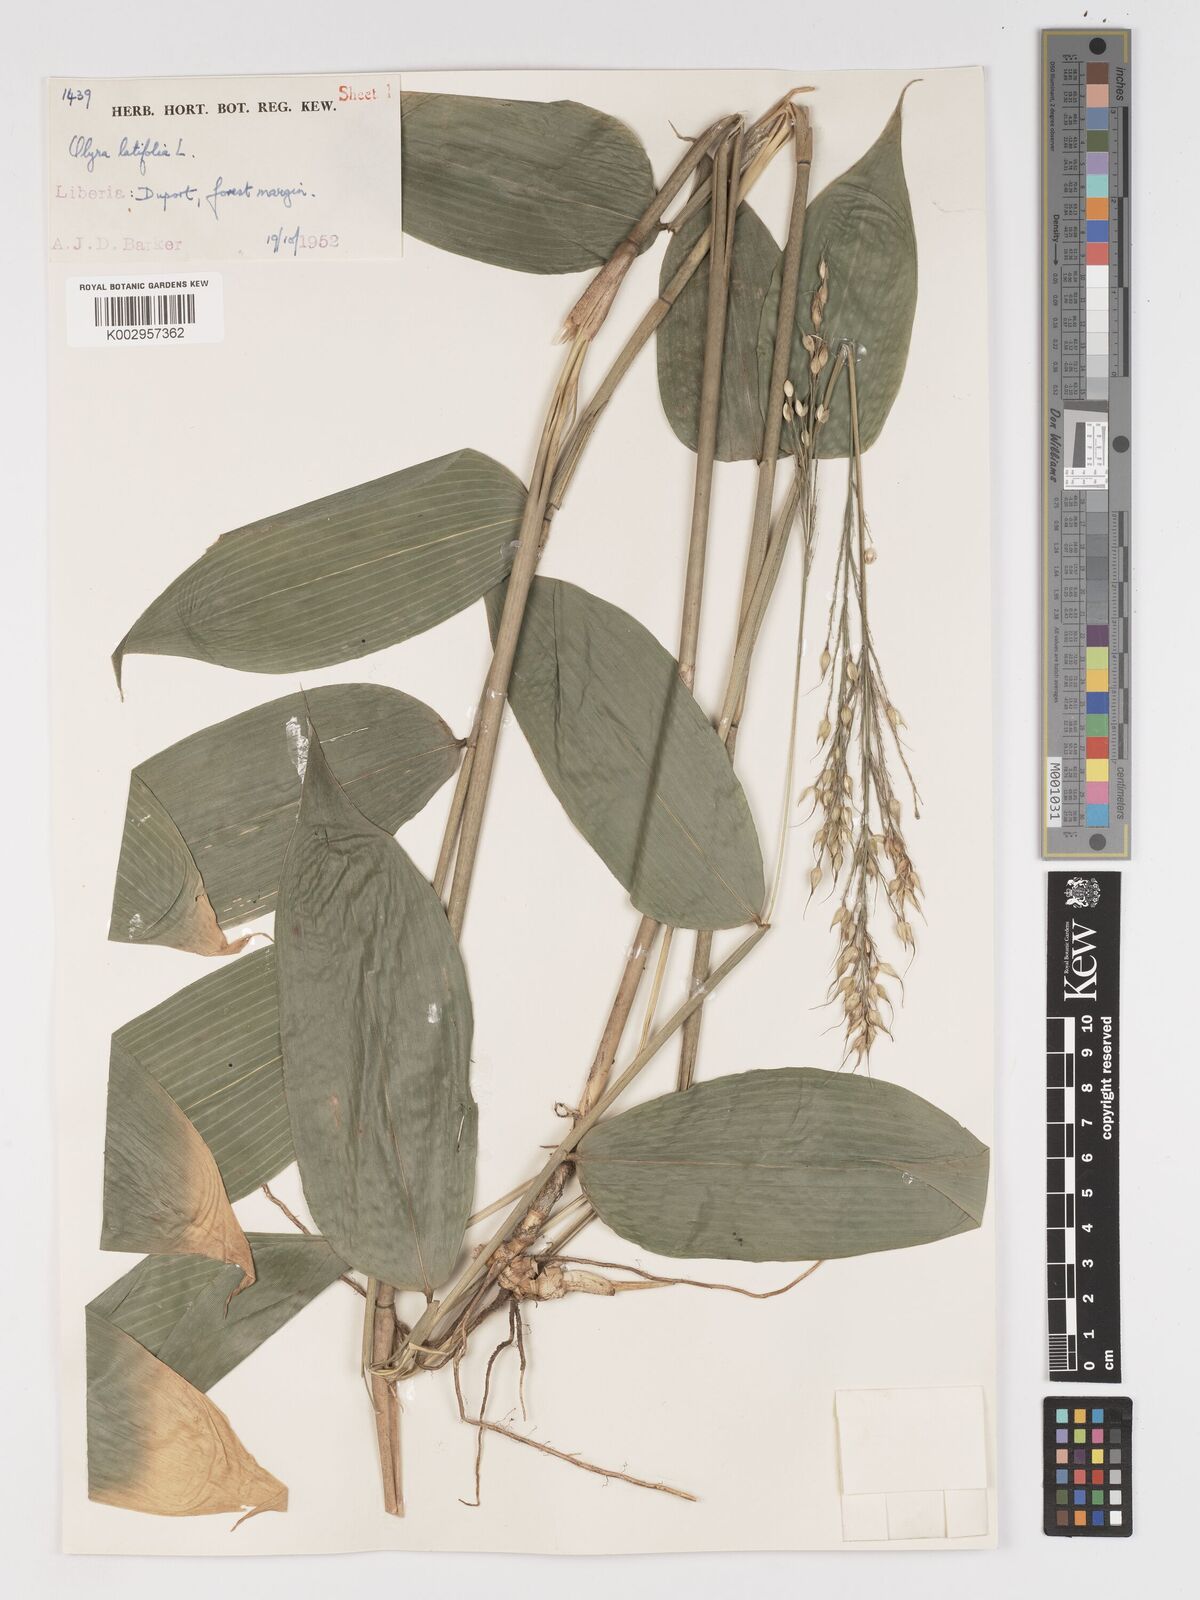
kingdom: Plantae
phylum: Tracheophyta
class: Liliopsida
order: Poales
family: Poaceae
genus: Olyra
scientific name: Olyra latifolia
